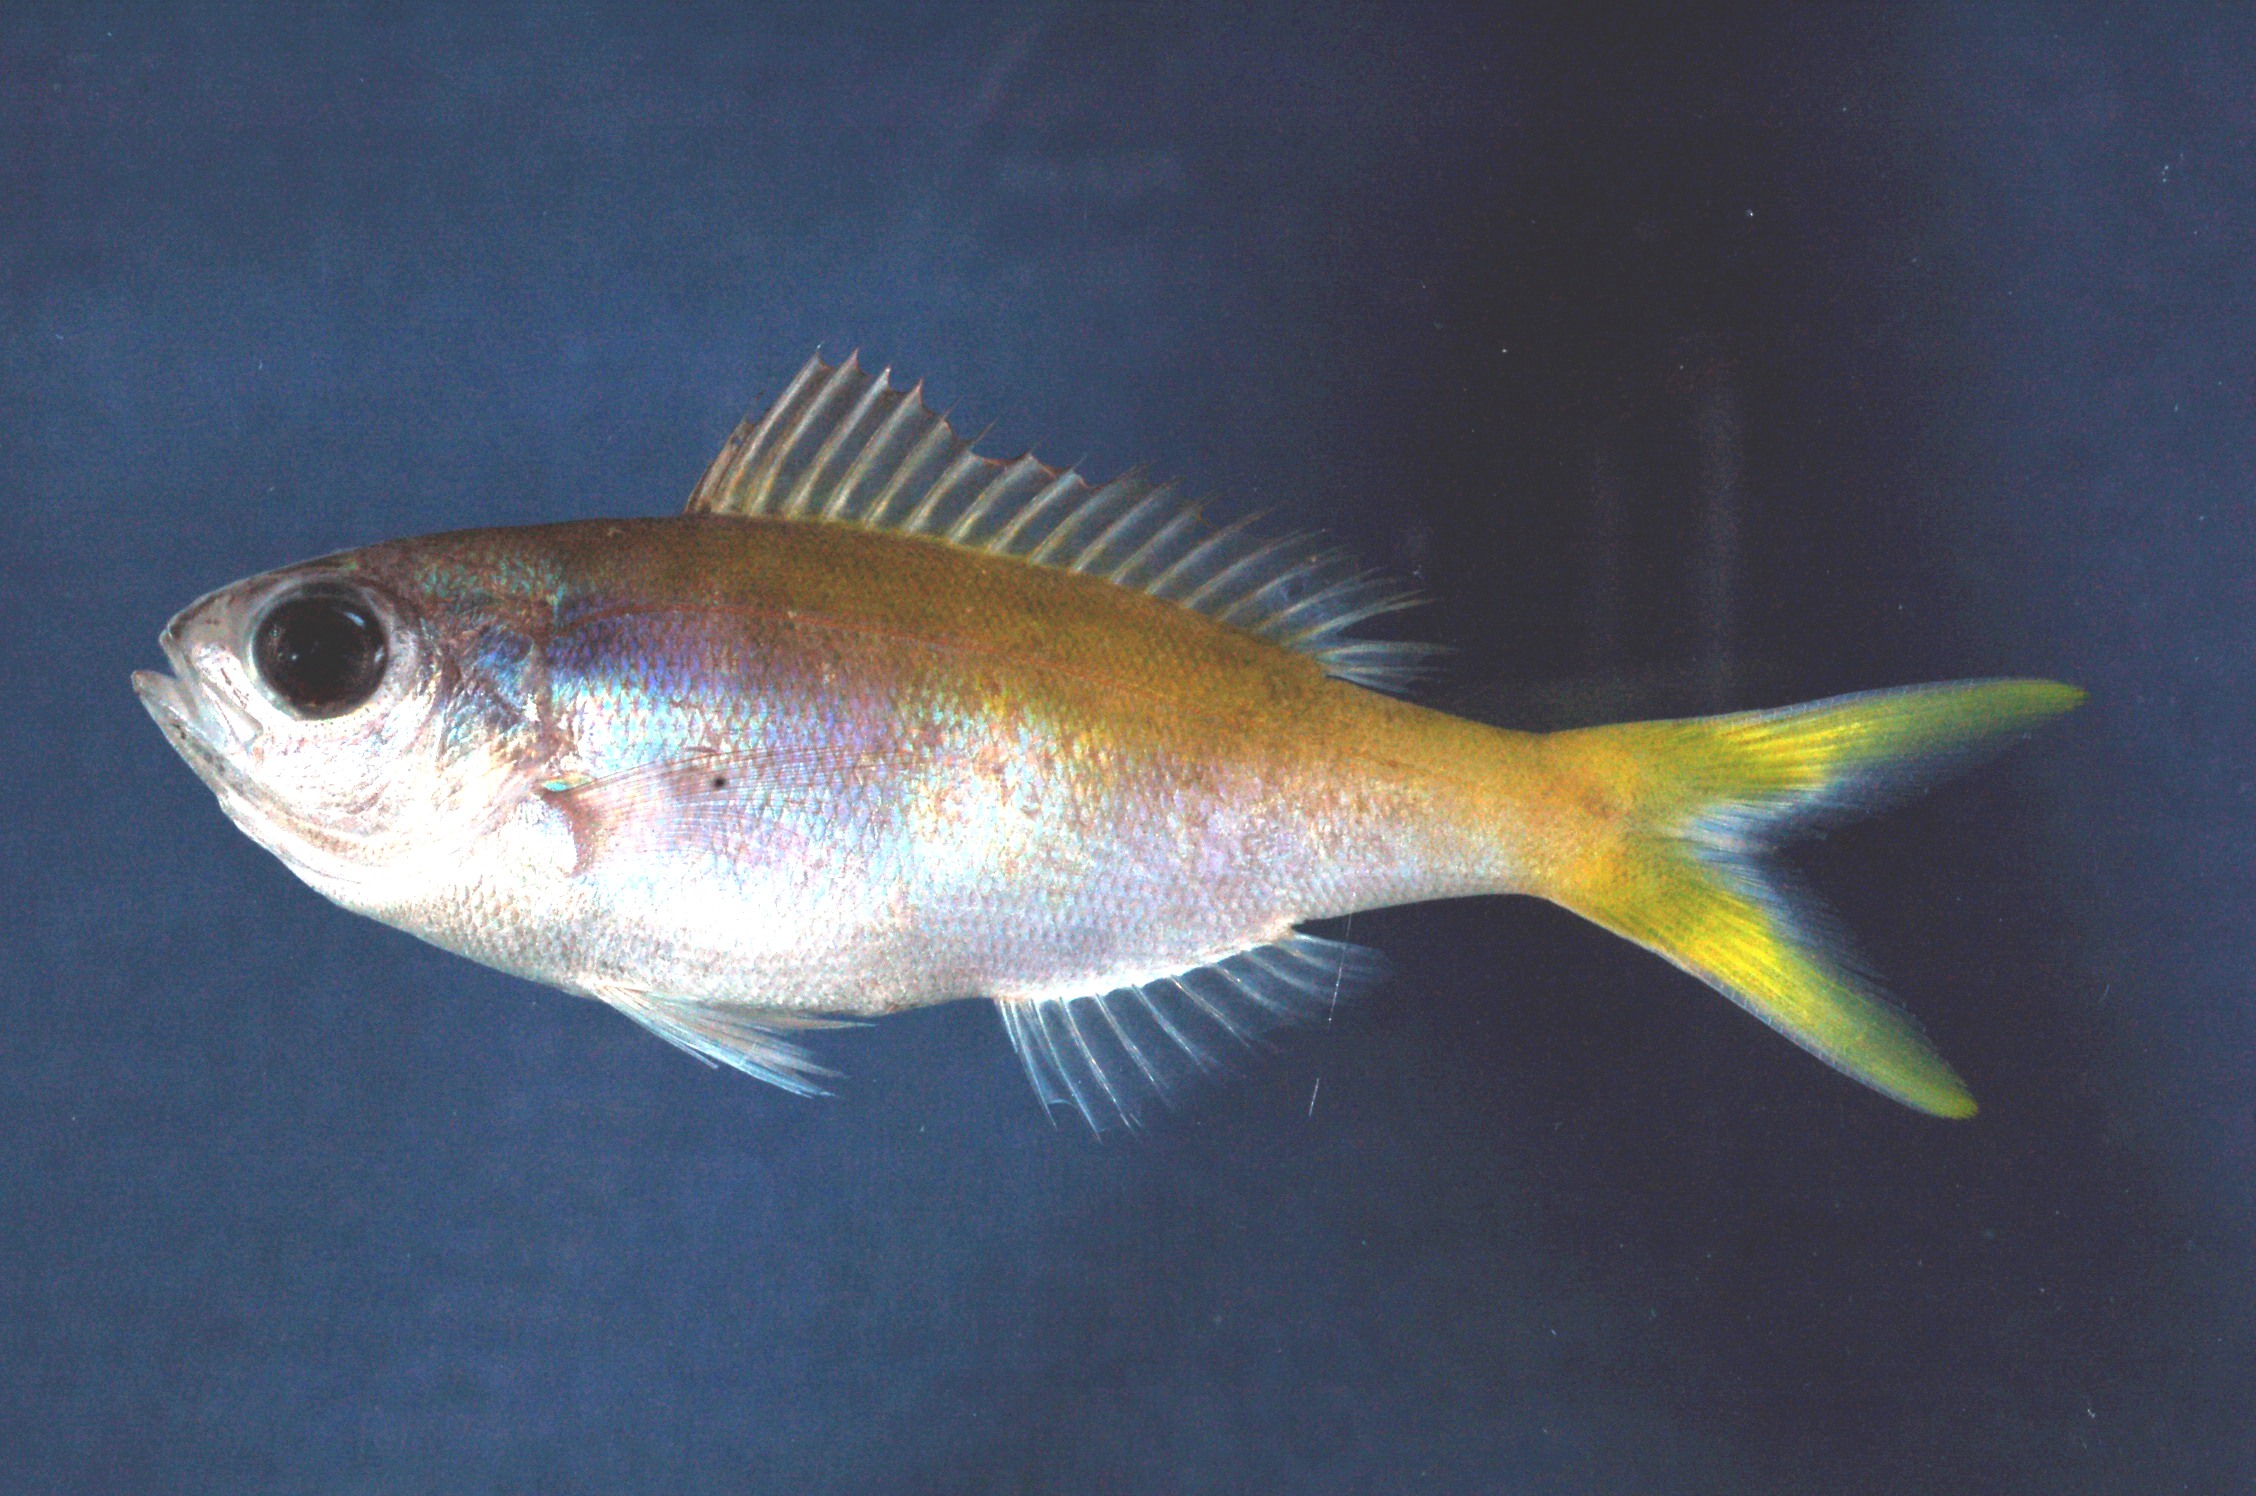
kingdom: Animalia
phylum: Chordata
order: Perciformes
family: Lutjanidae
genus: Paracaesio
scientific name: Paracaesio xanthura
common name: Yellowtail blue snapper
